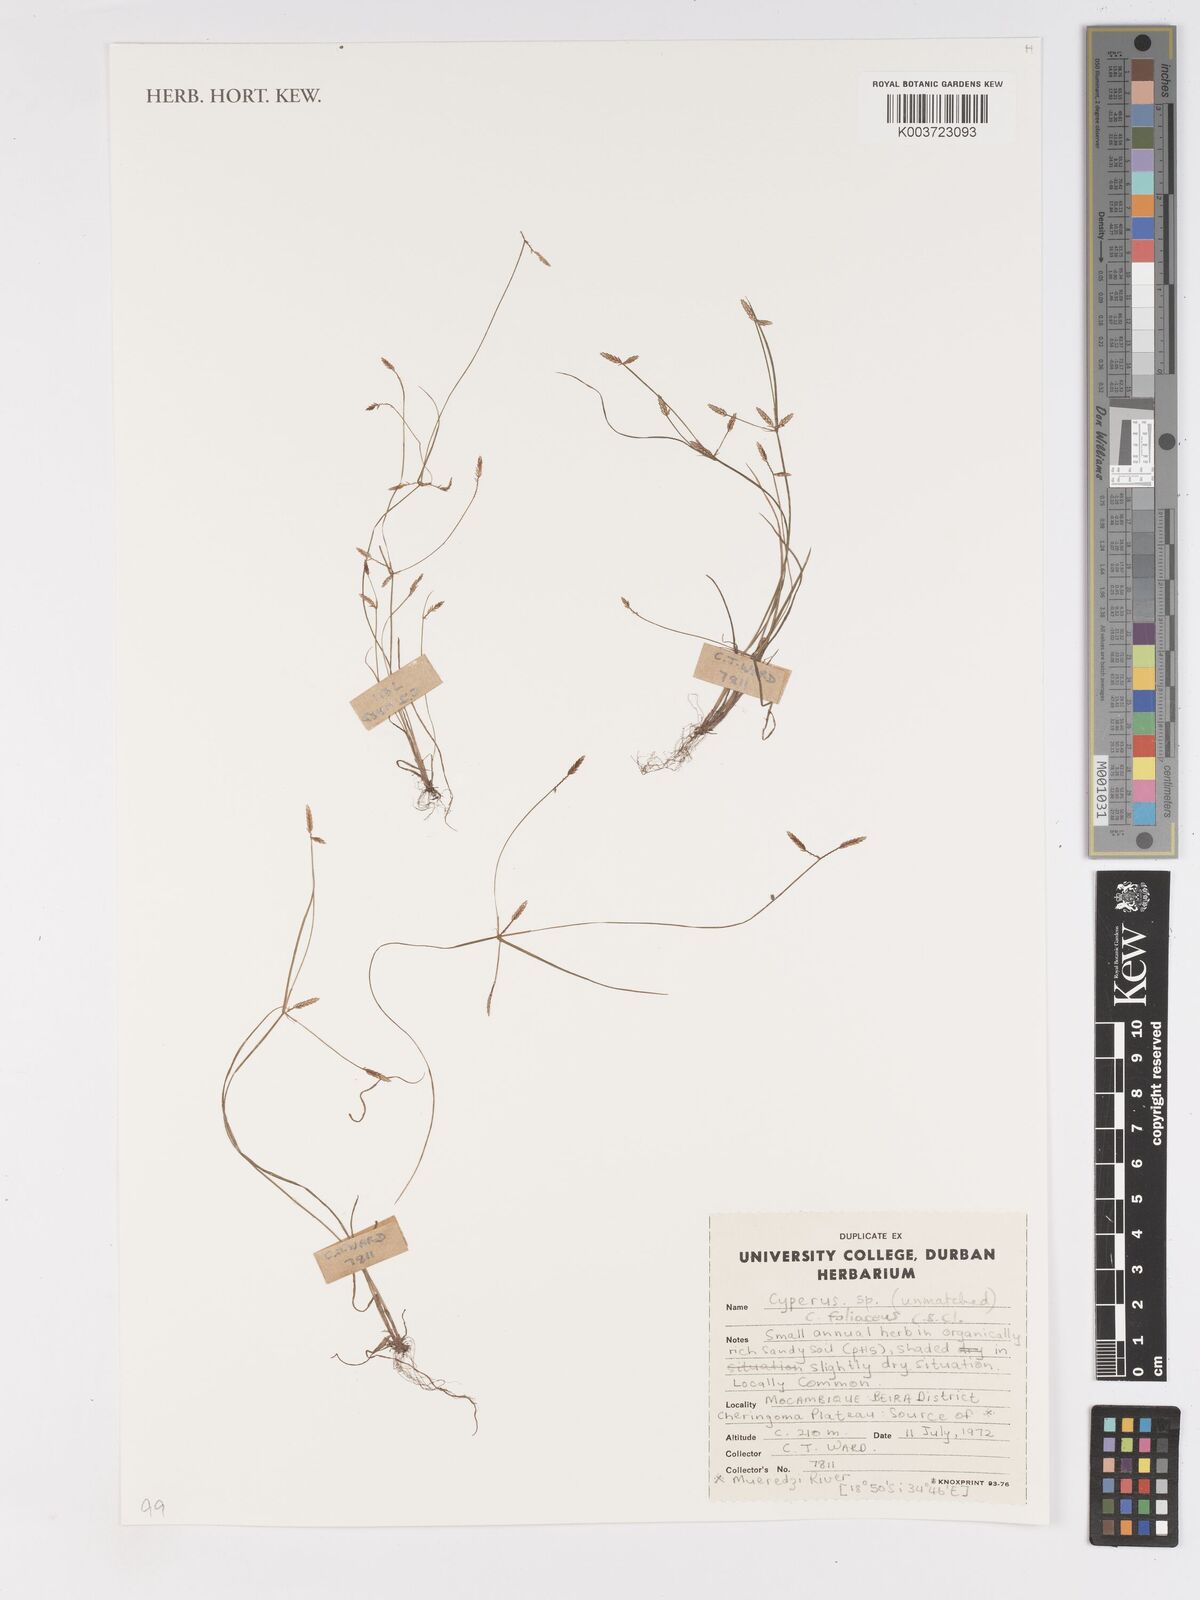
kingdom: Plantae
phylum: Tracheophyta
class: Liliopsida
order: Poales
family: Cyperaceae
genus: Cyperus
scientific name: Cyperus foliaceus
